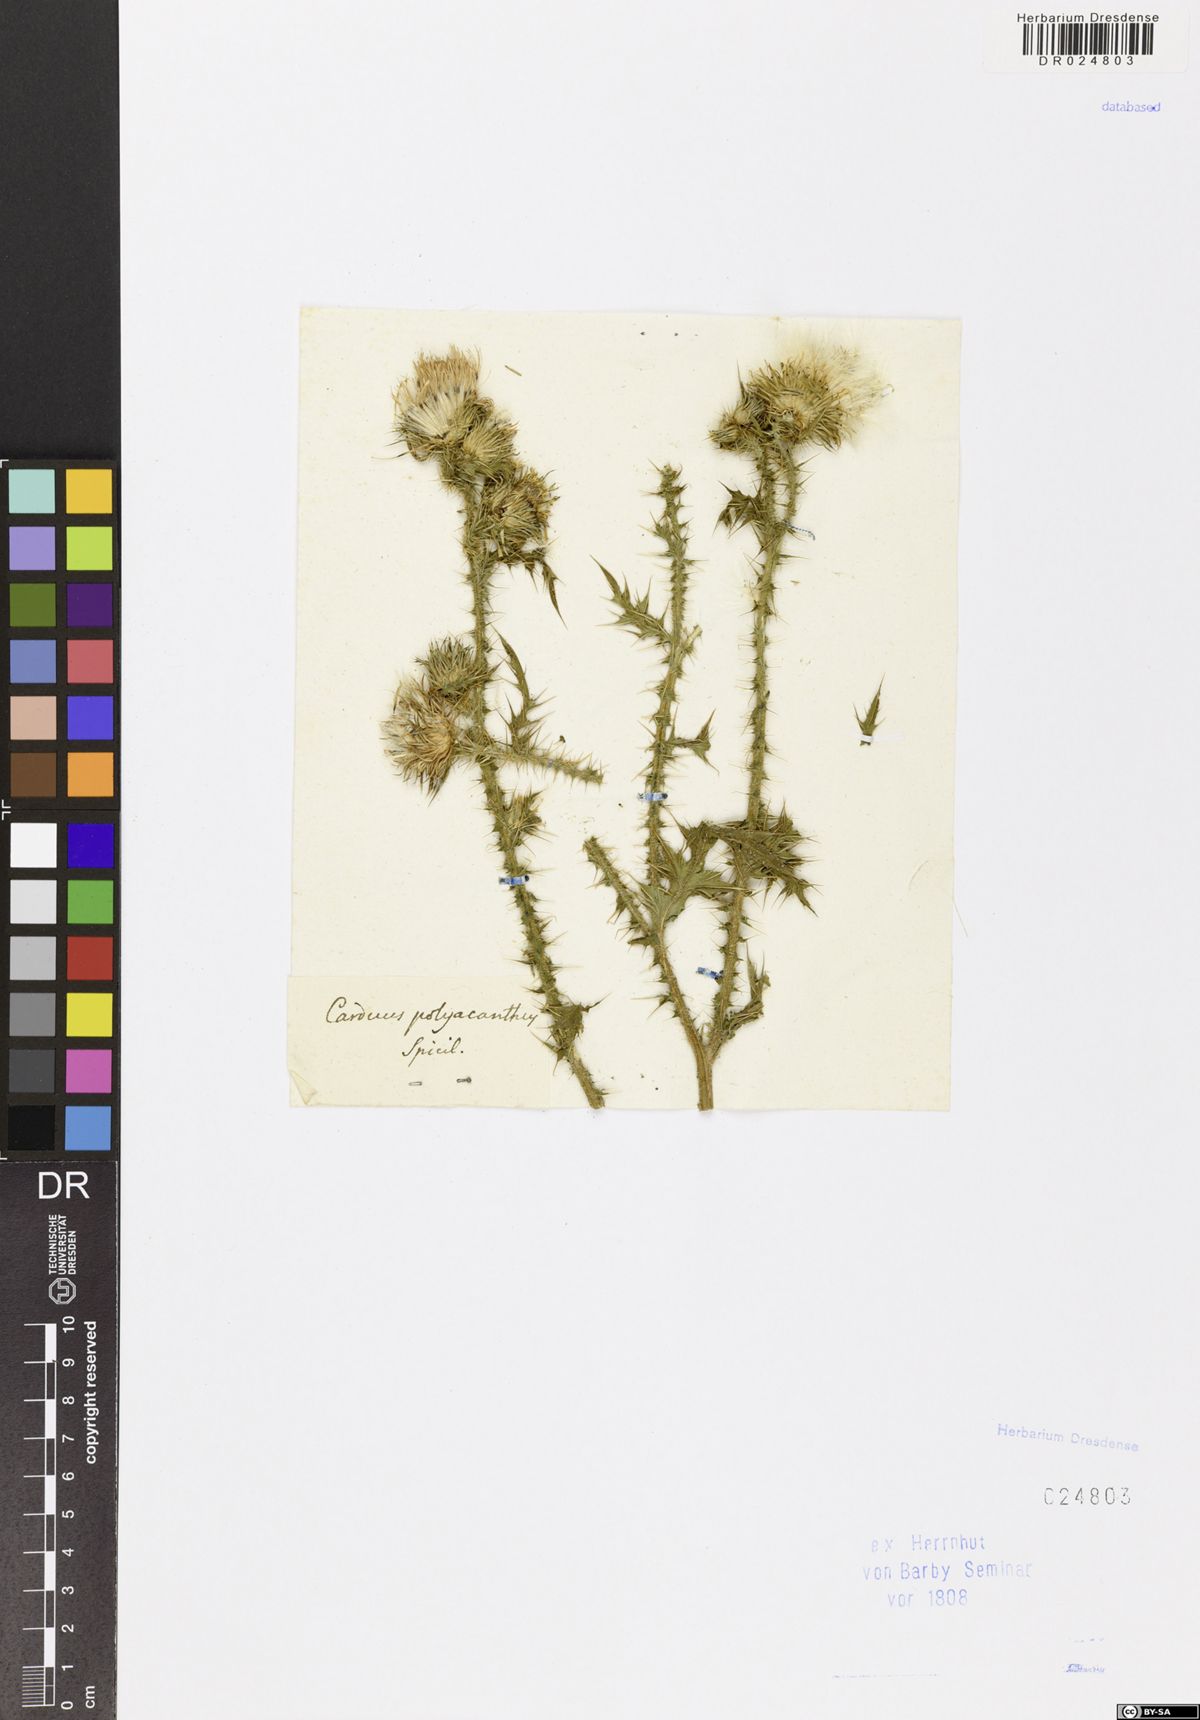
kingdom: Plantae
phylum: Tracheophyta
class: Magnoliopsida
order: Asterales
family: Asteraceae
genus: Carduus
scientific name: Carduus acanthoides
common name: Plumeless thistle
